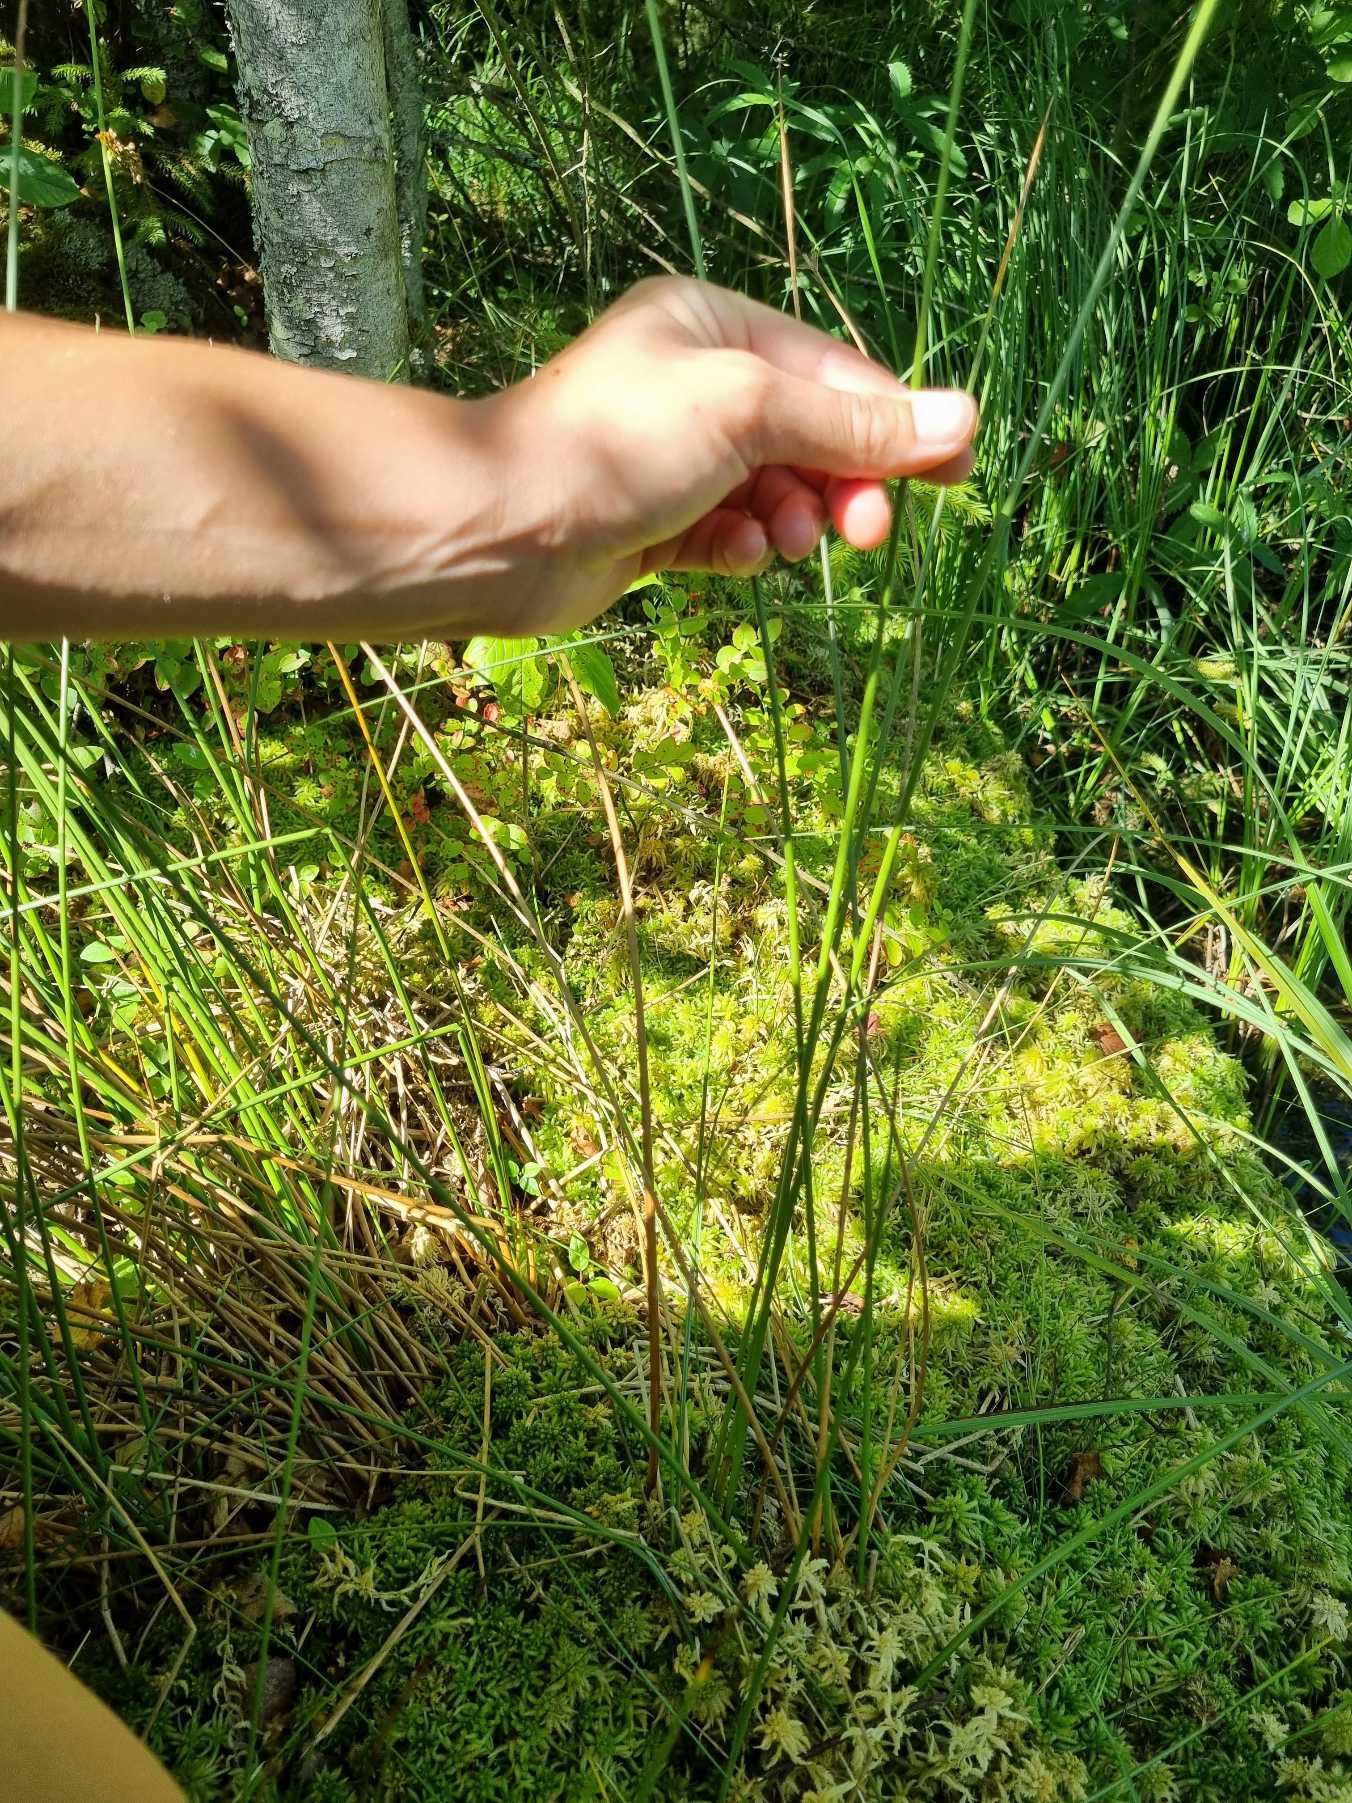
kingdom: Plantae
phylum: Tracheophyta
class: Liliopsida
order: Poales
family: Juncaceae
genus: Juncus
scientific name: Juncus effusus
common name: Lyse-siv
